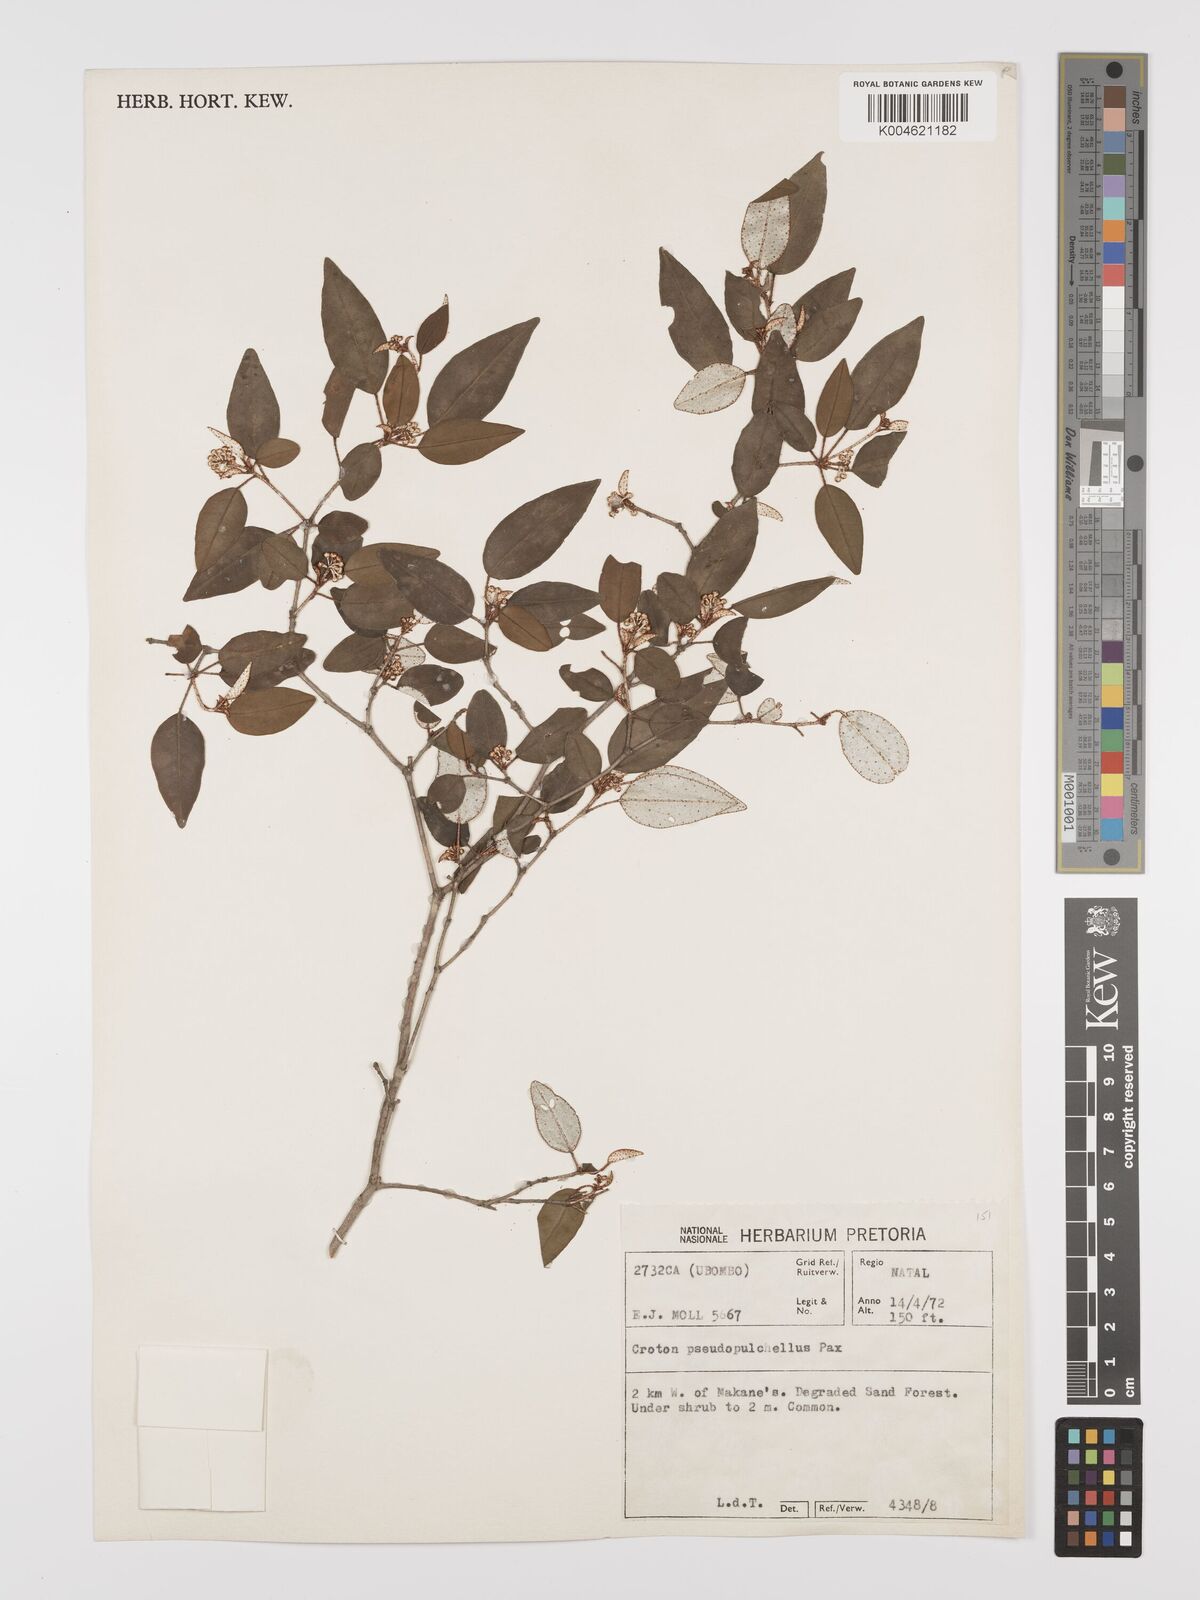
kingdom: Plantae
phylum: Tracheophyta
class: Magnoliopsida
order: Malpighiales
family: Euphorbiaceae
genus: Croton
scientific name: Croton pseudopulchellus
